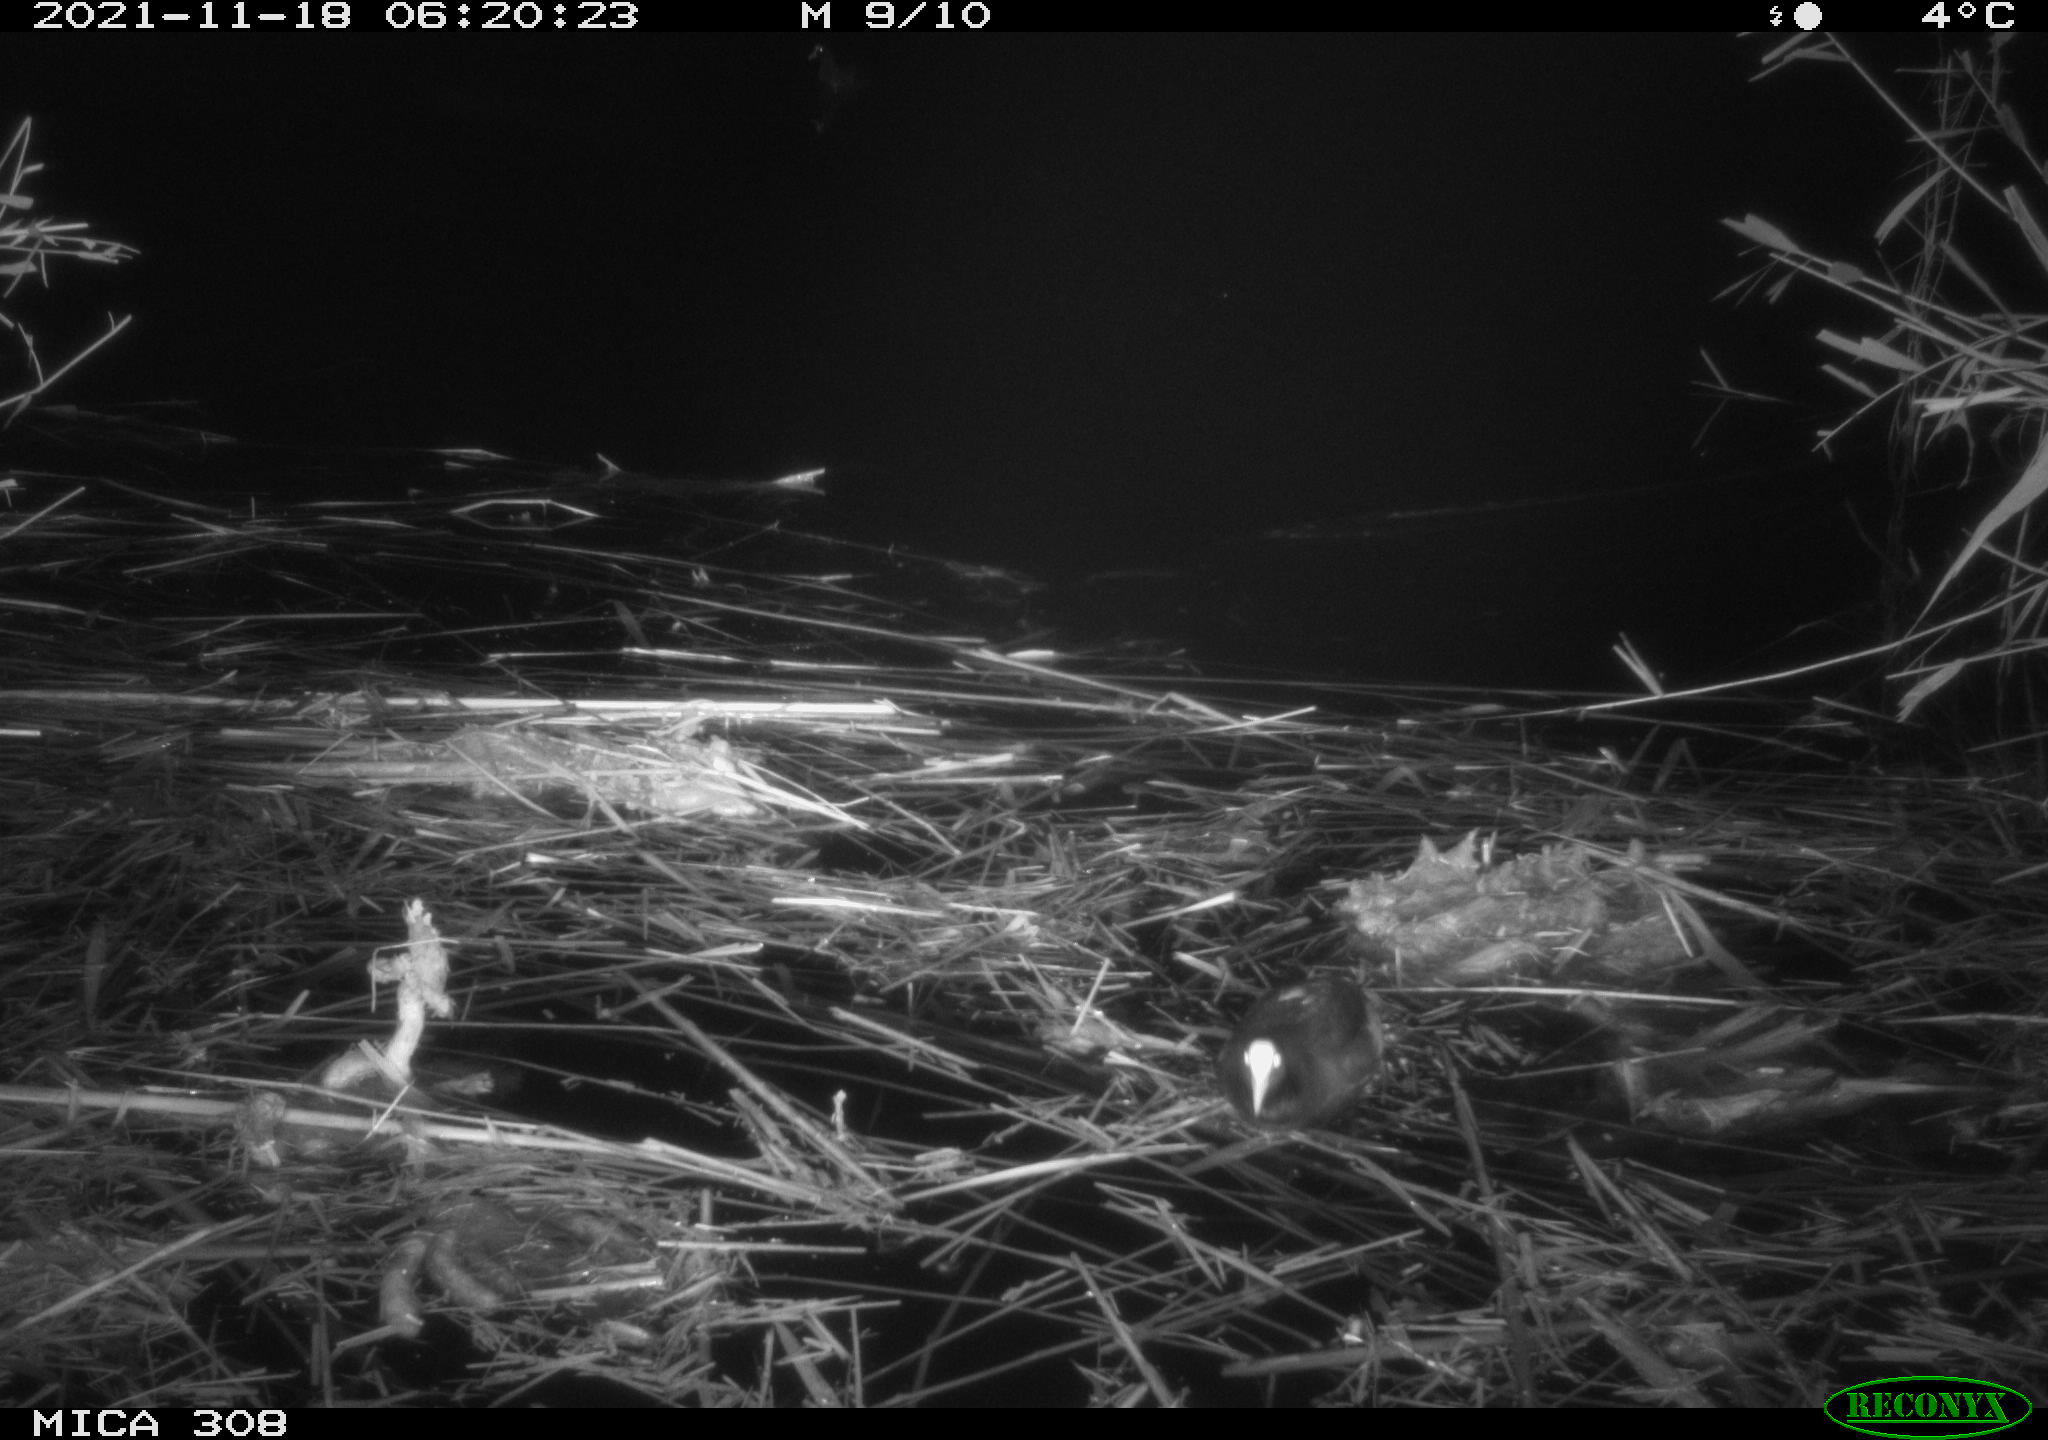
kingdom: Animalia
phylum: Chordata
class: Aves
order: Gruiformes
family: Rallidae
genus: Fulica
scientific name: Fulica atra
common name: Eurasian coot
